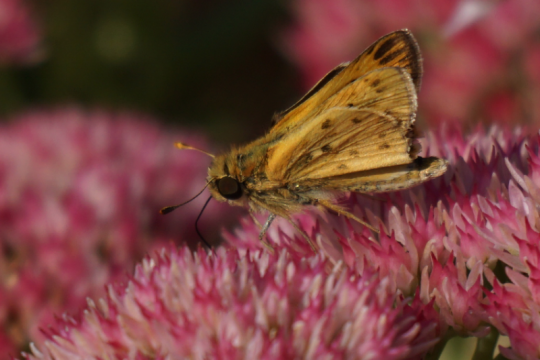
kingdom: Animalia
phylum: Arthropoda
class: Insecta
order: Lepidoptera
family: Hesperiidae
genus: Hylephila
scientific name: Hylephila phyleus
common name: Fiery Skipper
